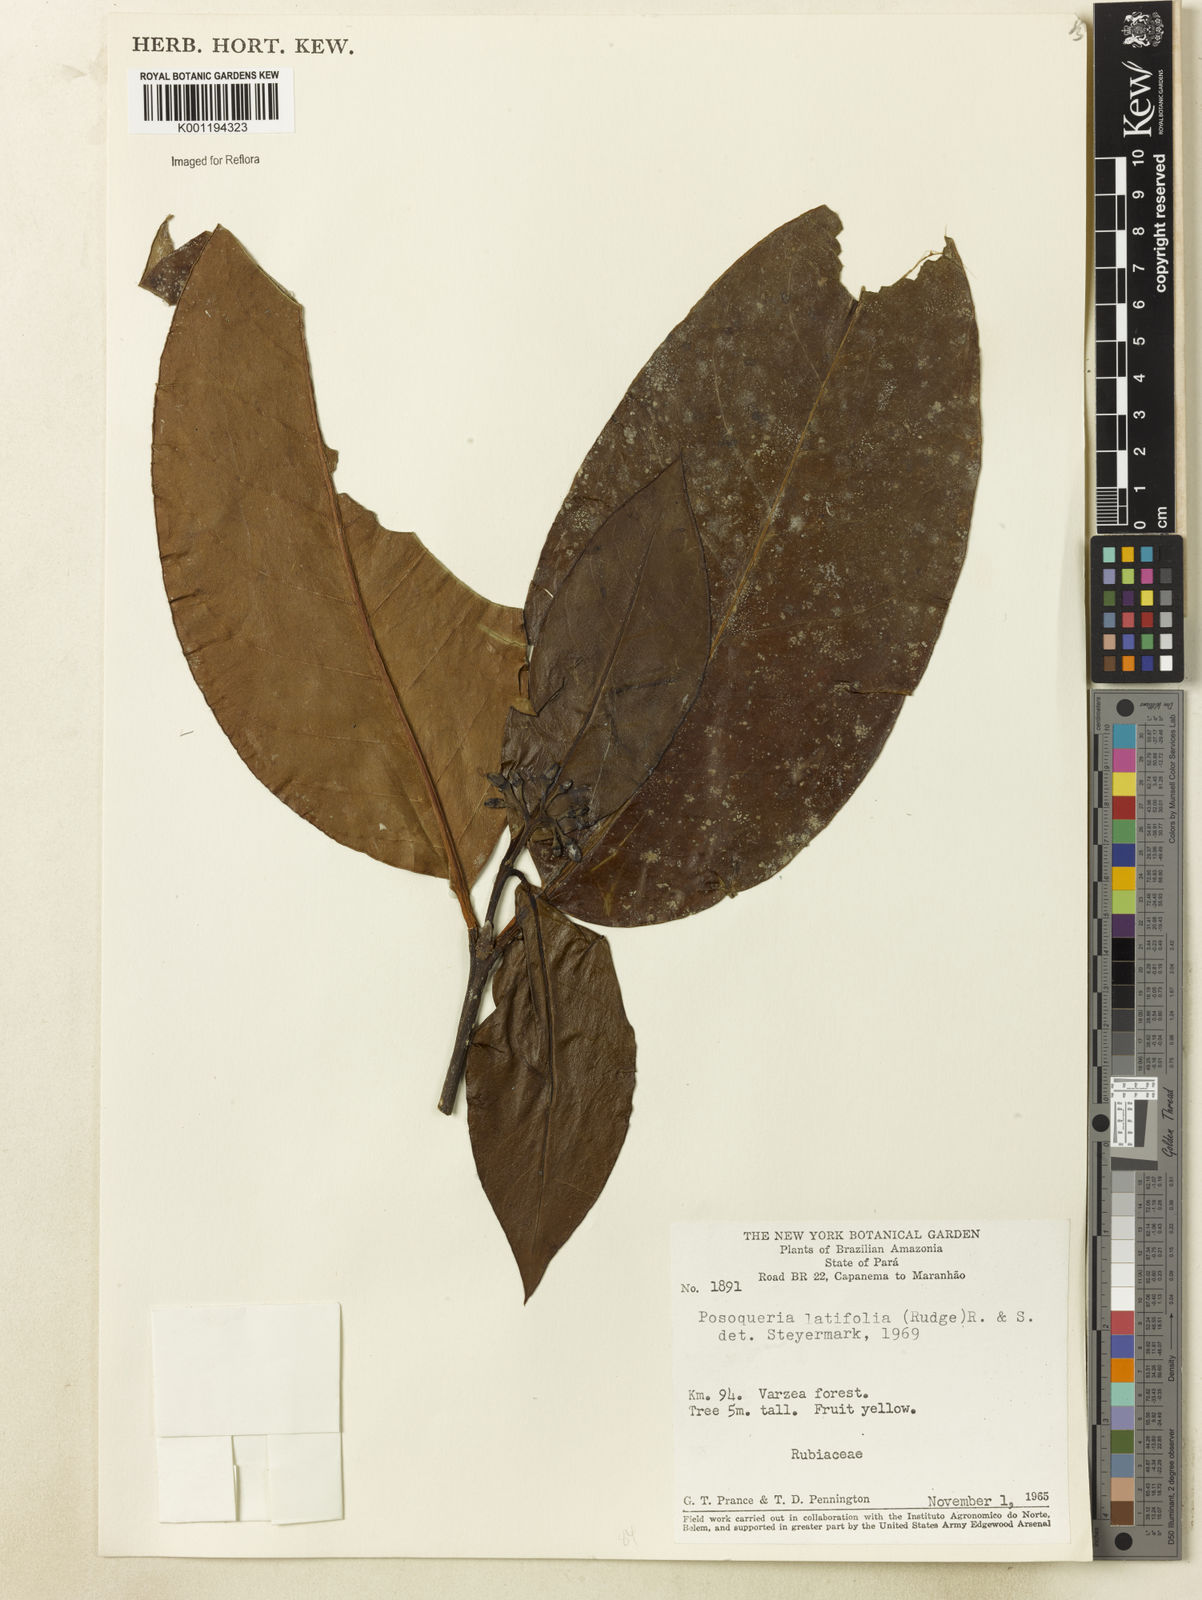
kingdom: Plantae
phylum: Tracheophyta
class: Magnoliopsida
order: Gentianales
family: Rubiaceae
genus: Posoqueria
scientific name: Posoqueria latifolia
